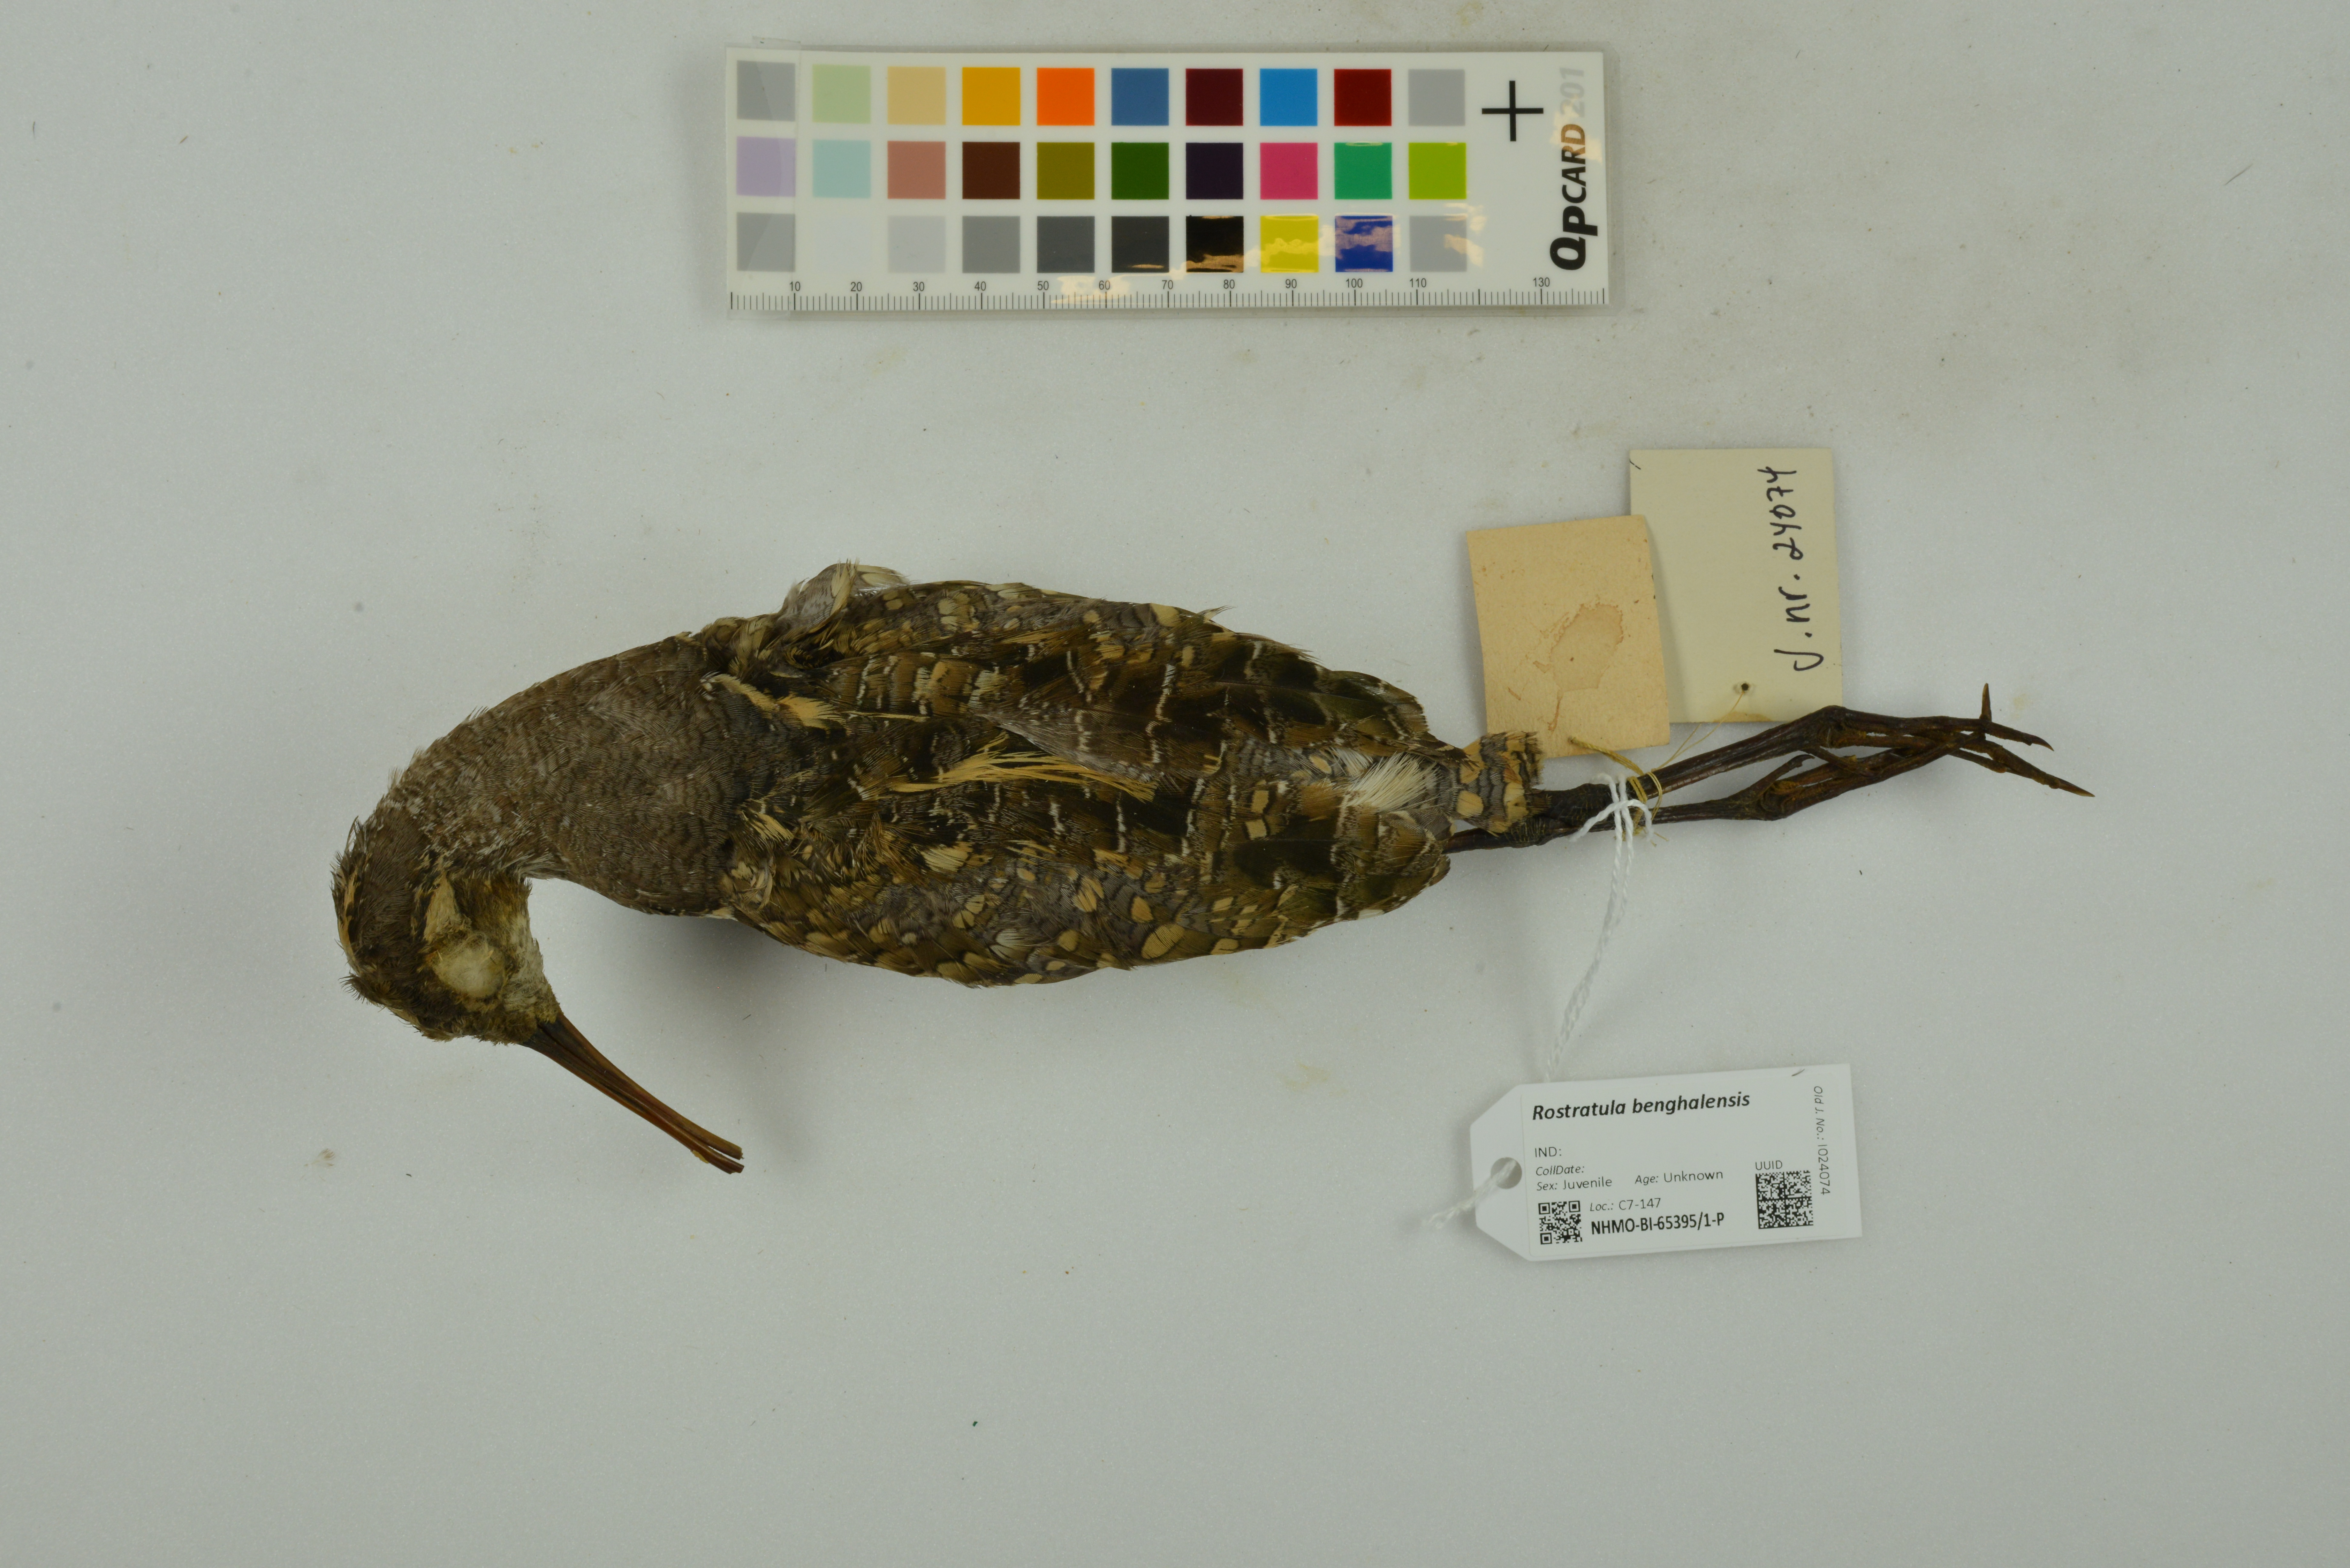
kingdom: Animalia
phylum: Chordata
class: Aves
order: Charadriiformes
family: Rostratulidae
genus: Rostratula
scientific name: Rostratula benghalensis
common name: Greater painted-snipe
